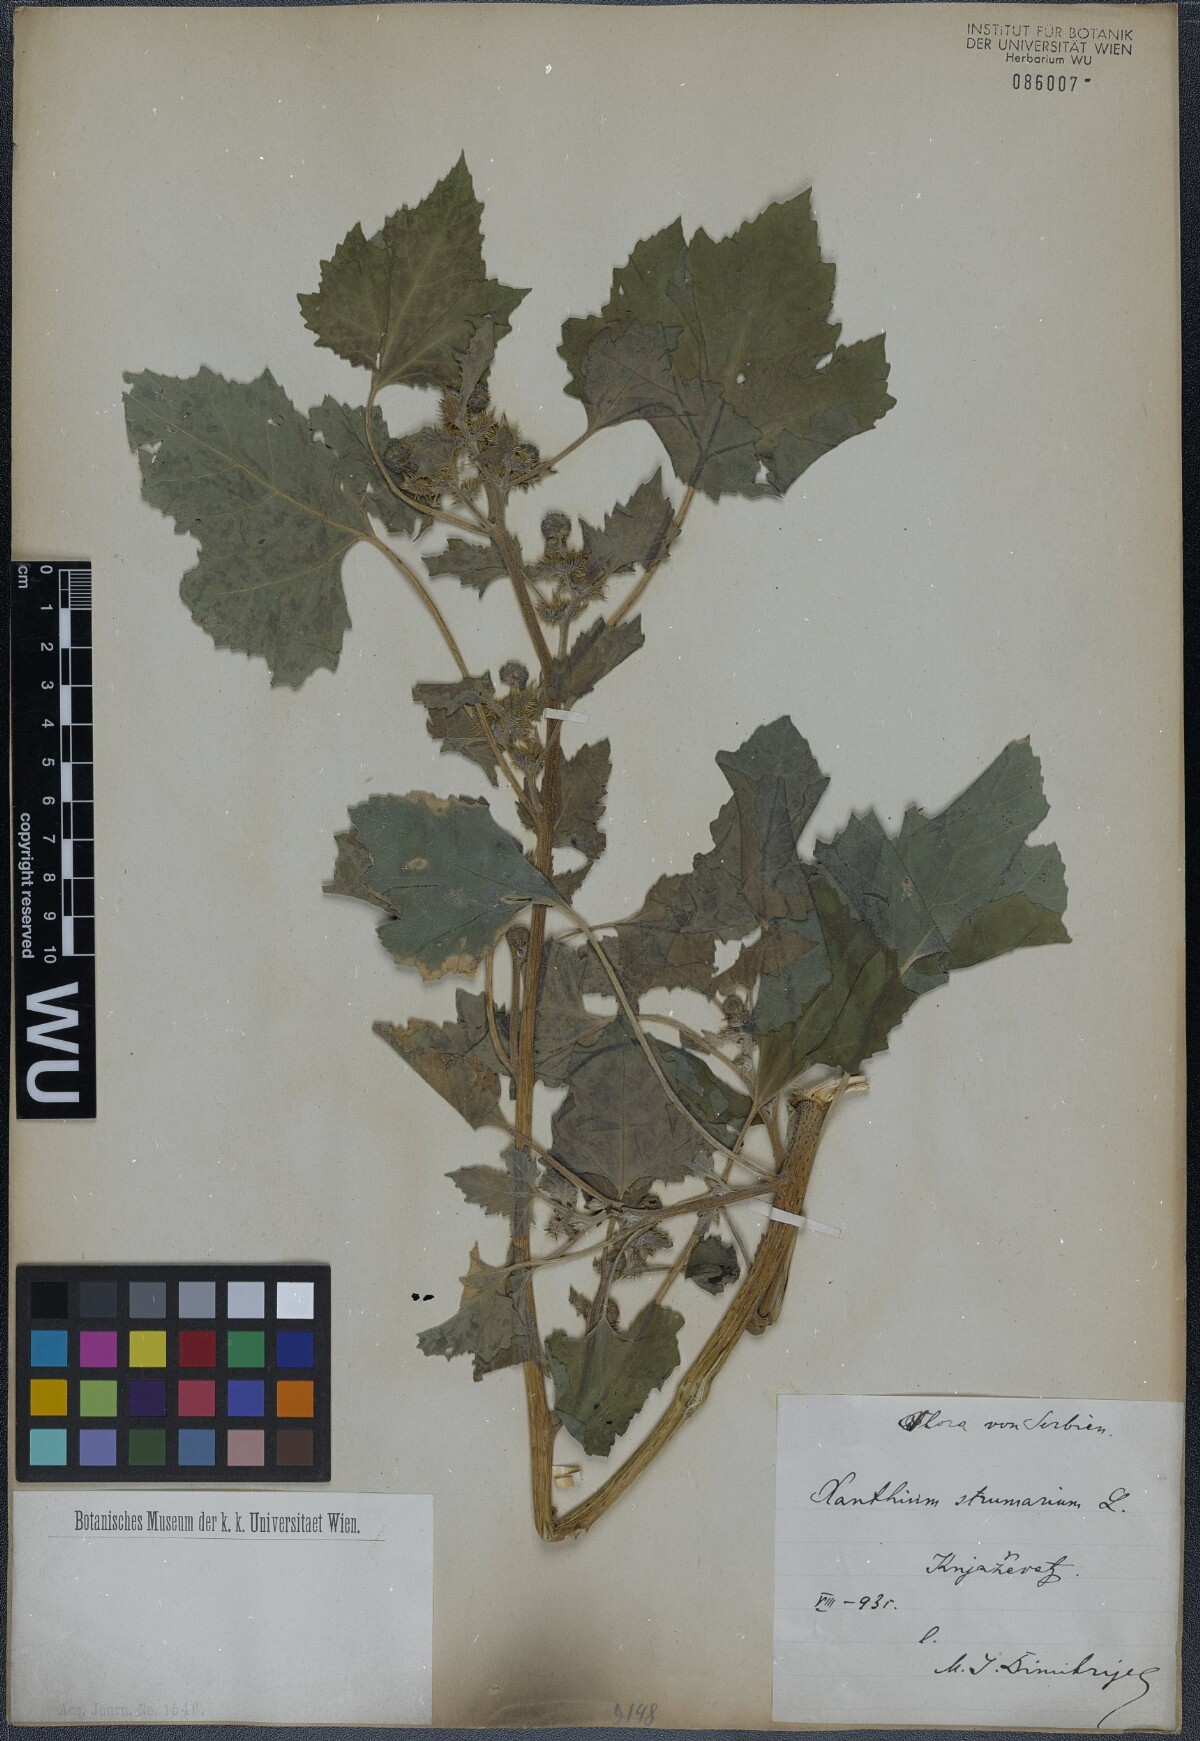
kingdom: Plantae
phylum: Tracheophyta
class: Magnoliopsida
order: Asterales
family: Asteraceae
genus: Xanthium
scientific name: Xanthium strumarium
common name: Rough cocklebur
